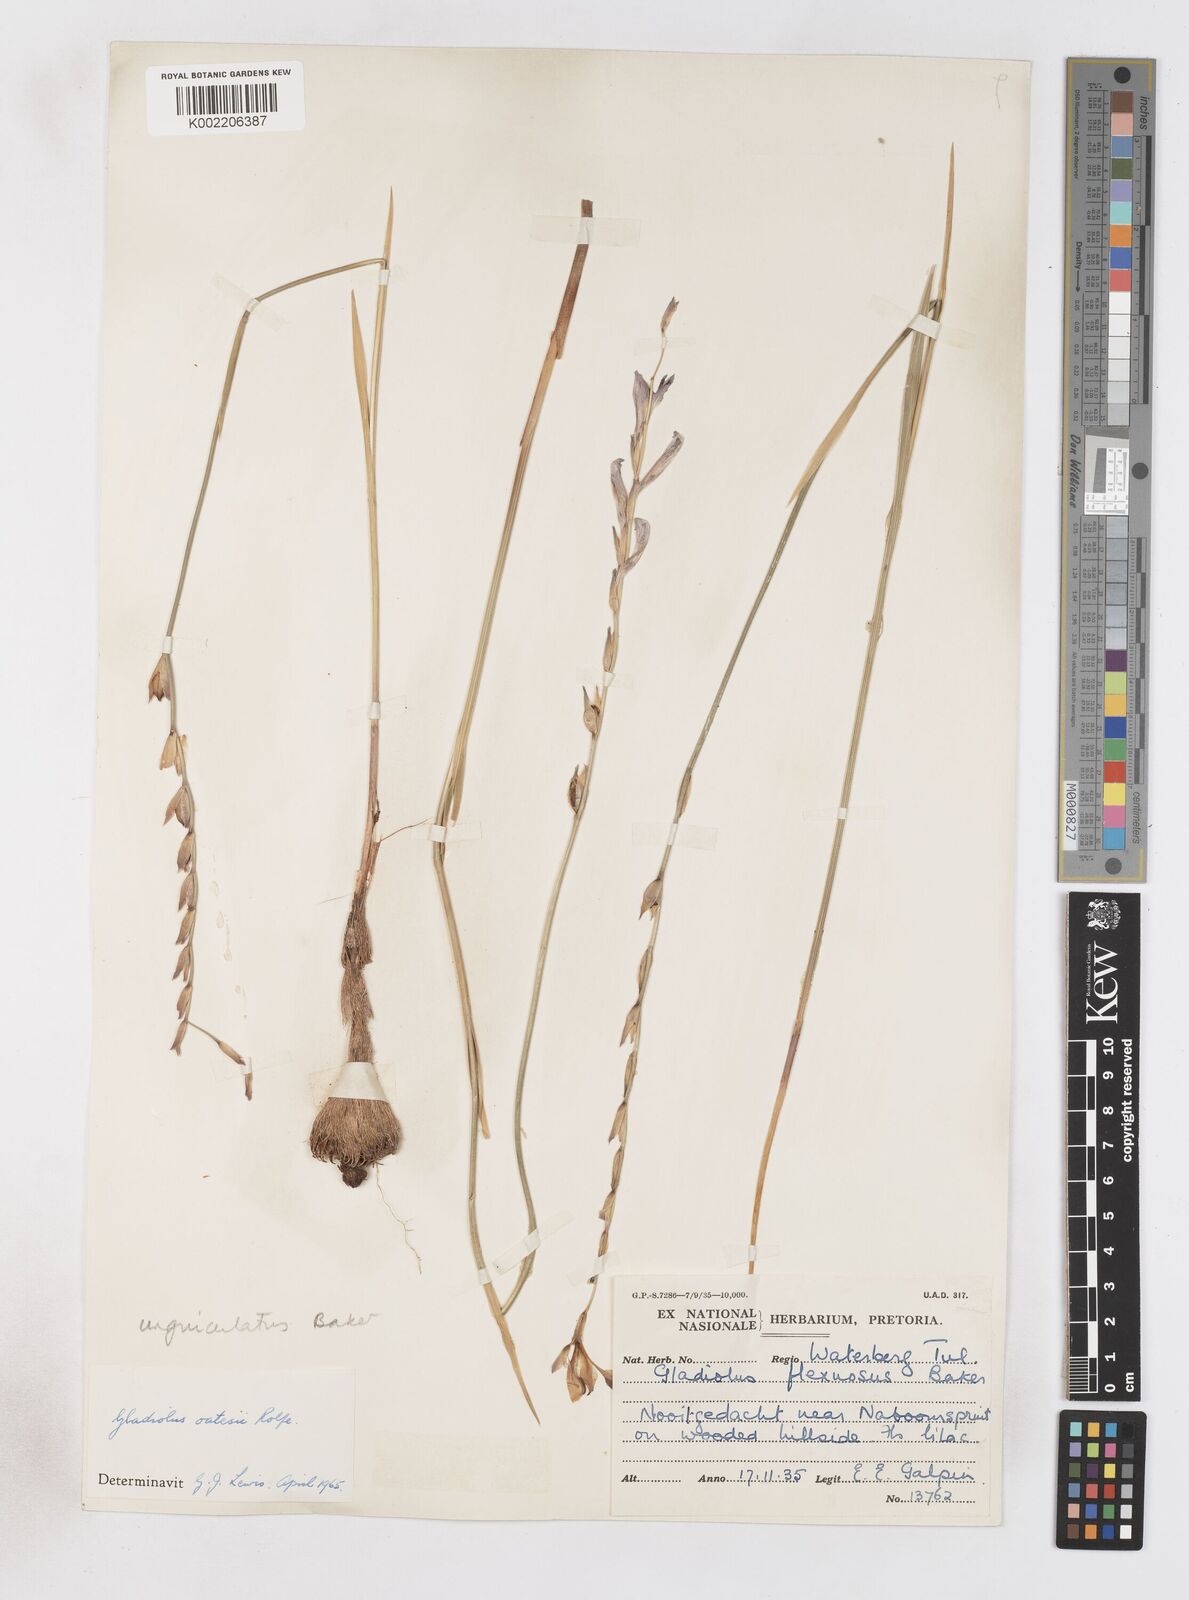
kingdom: Plantae
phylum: Tracheophyta
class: Liliopsida
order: Asparagales
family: Iridaceae
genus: Gladiolus
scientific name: Gladiolus unguiculatus
